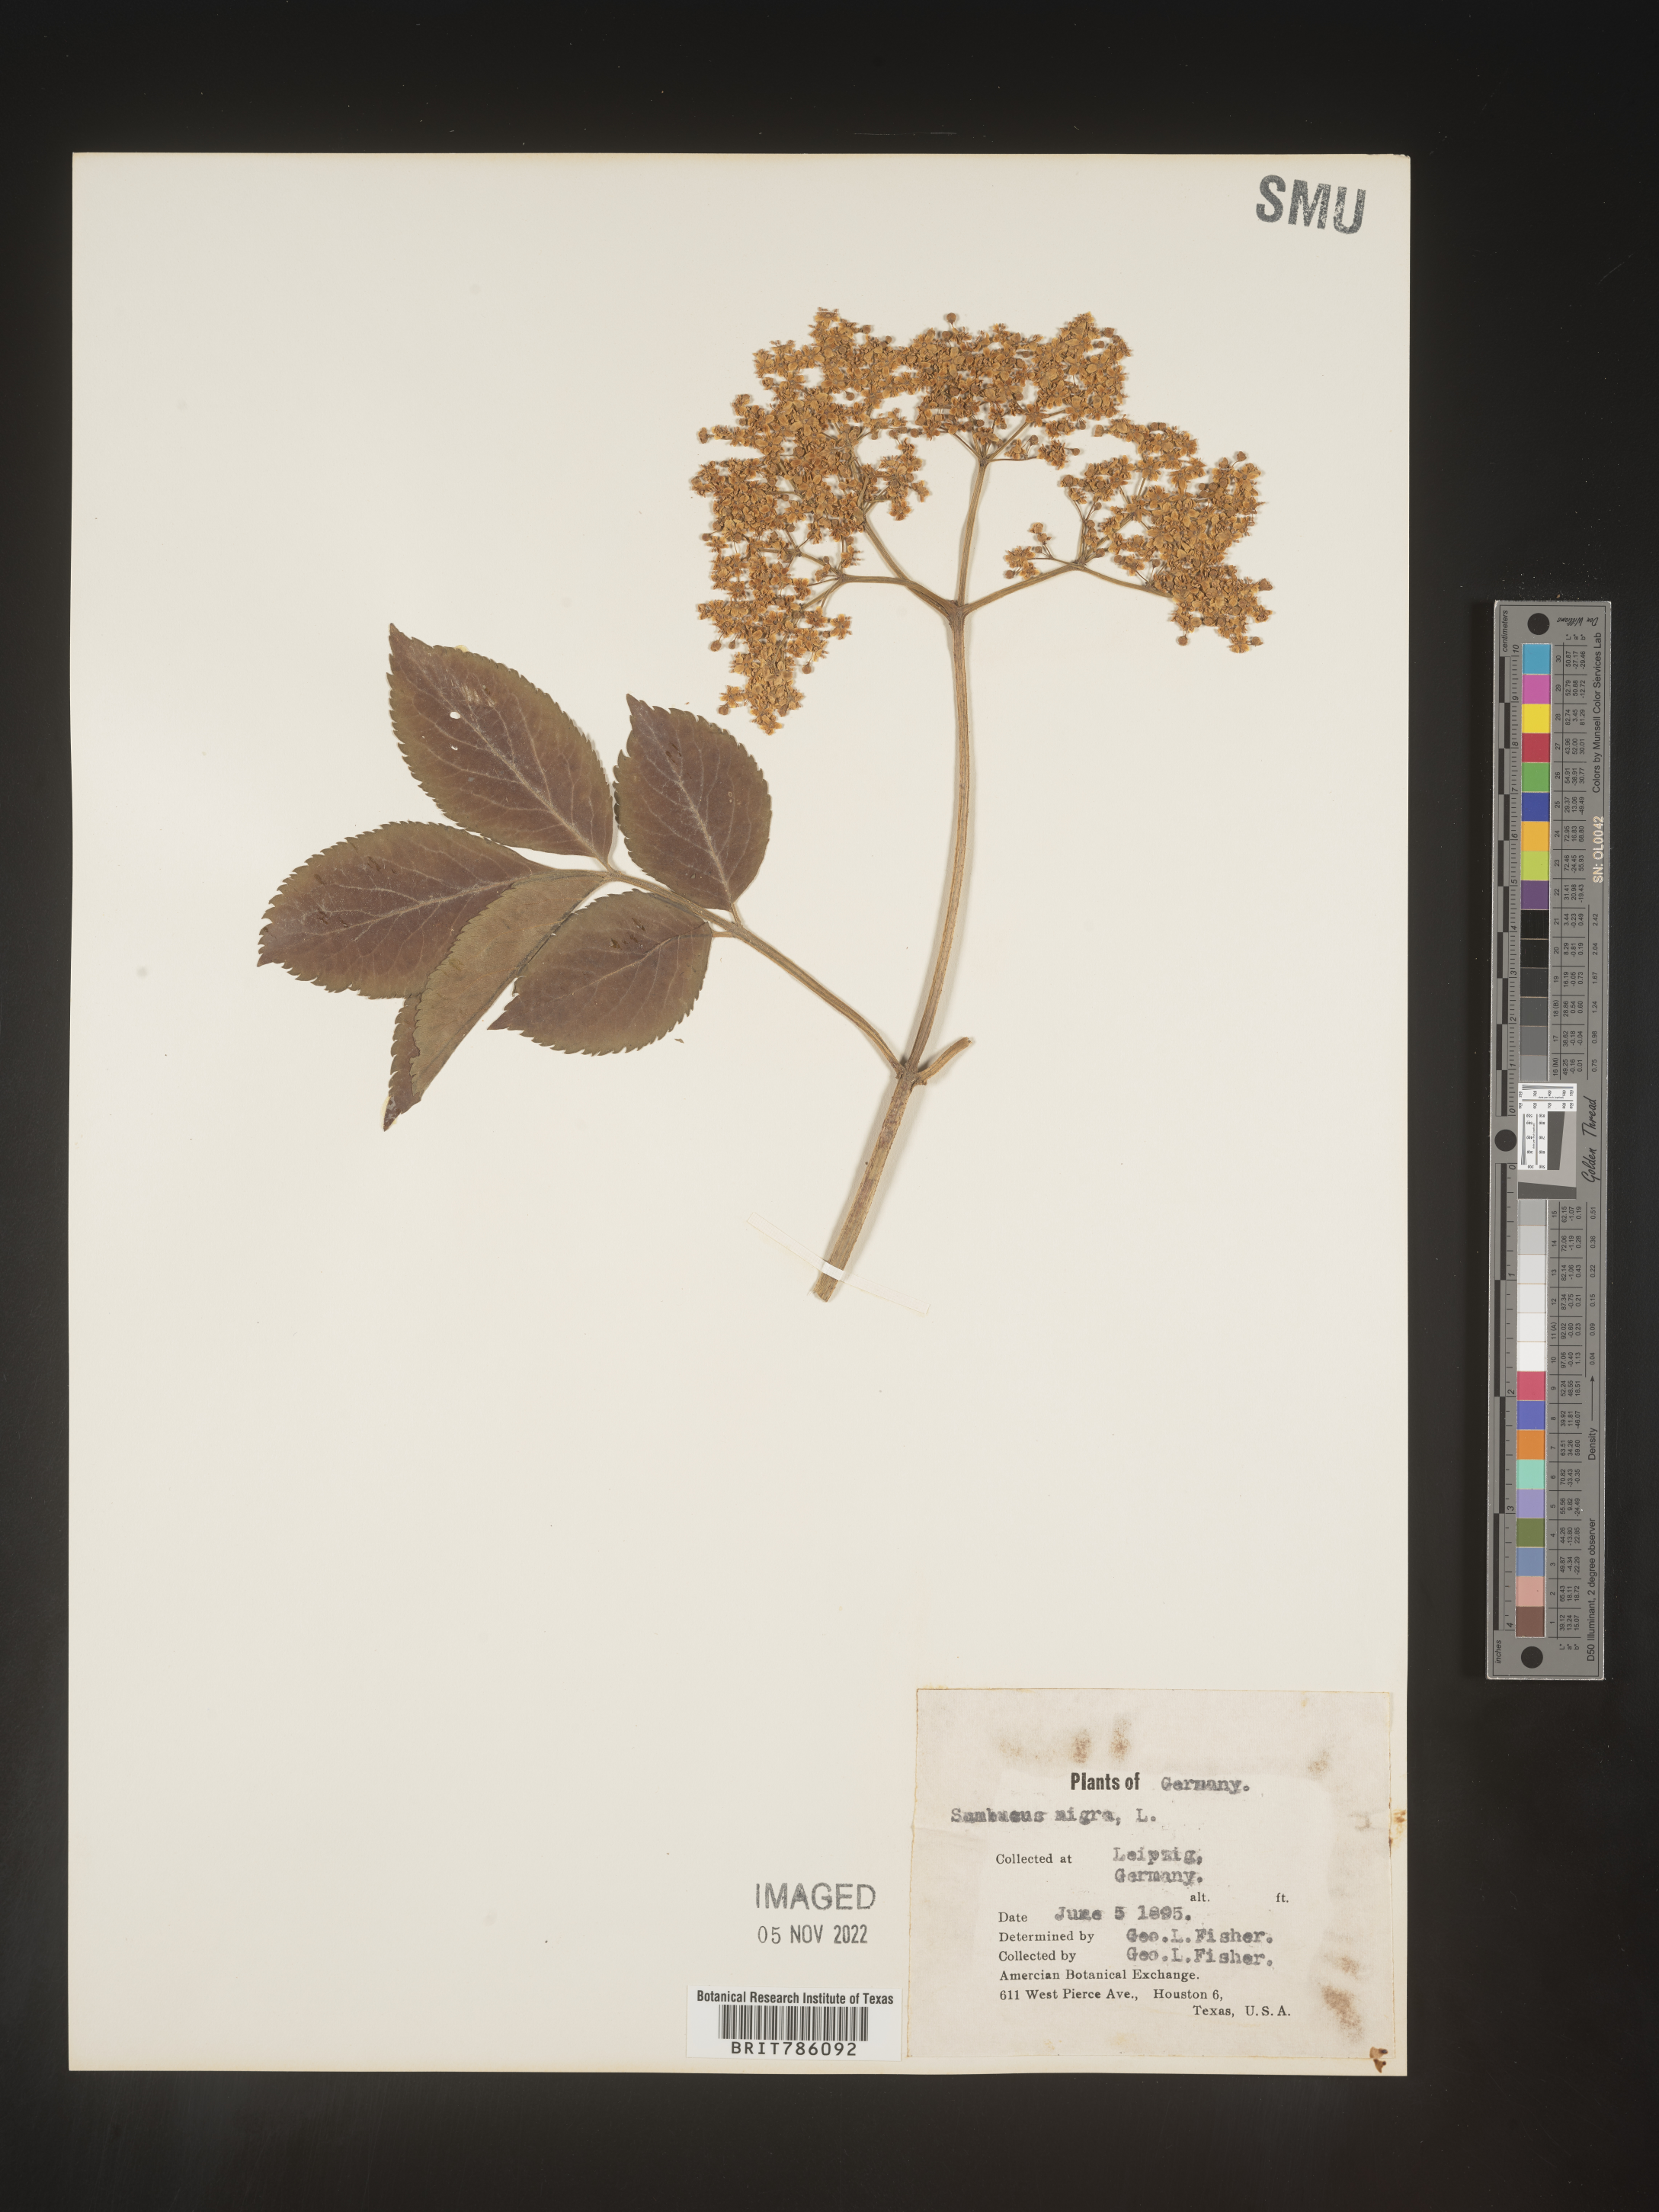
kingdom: Plantae
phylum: Tracheophyta
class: Magnoliopsida
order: Dipsacales
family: Viburnaceae
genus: Sambucus
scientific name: Sambucus
